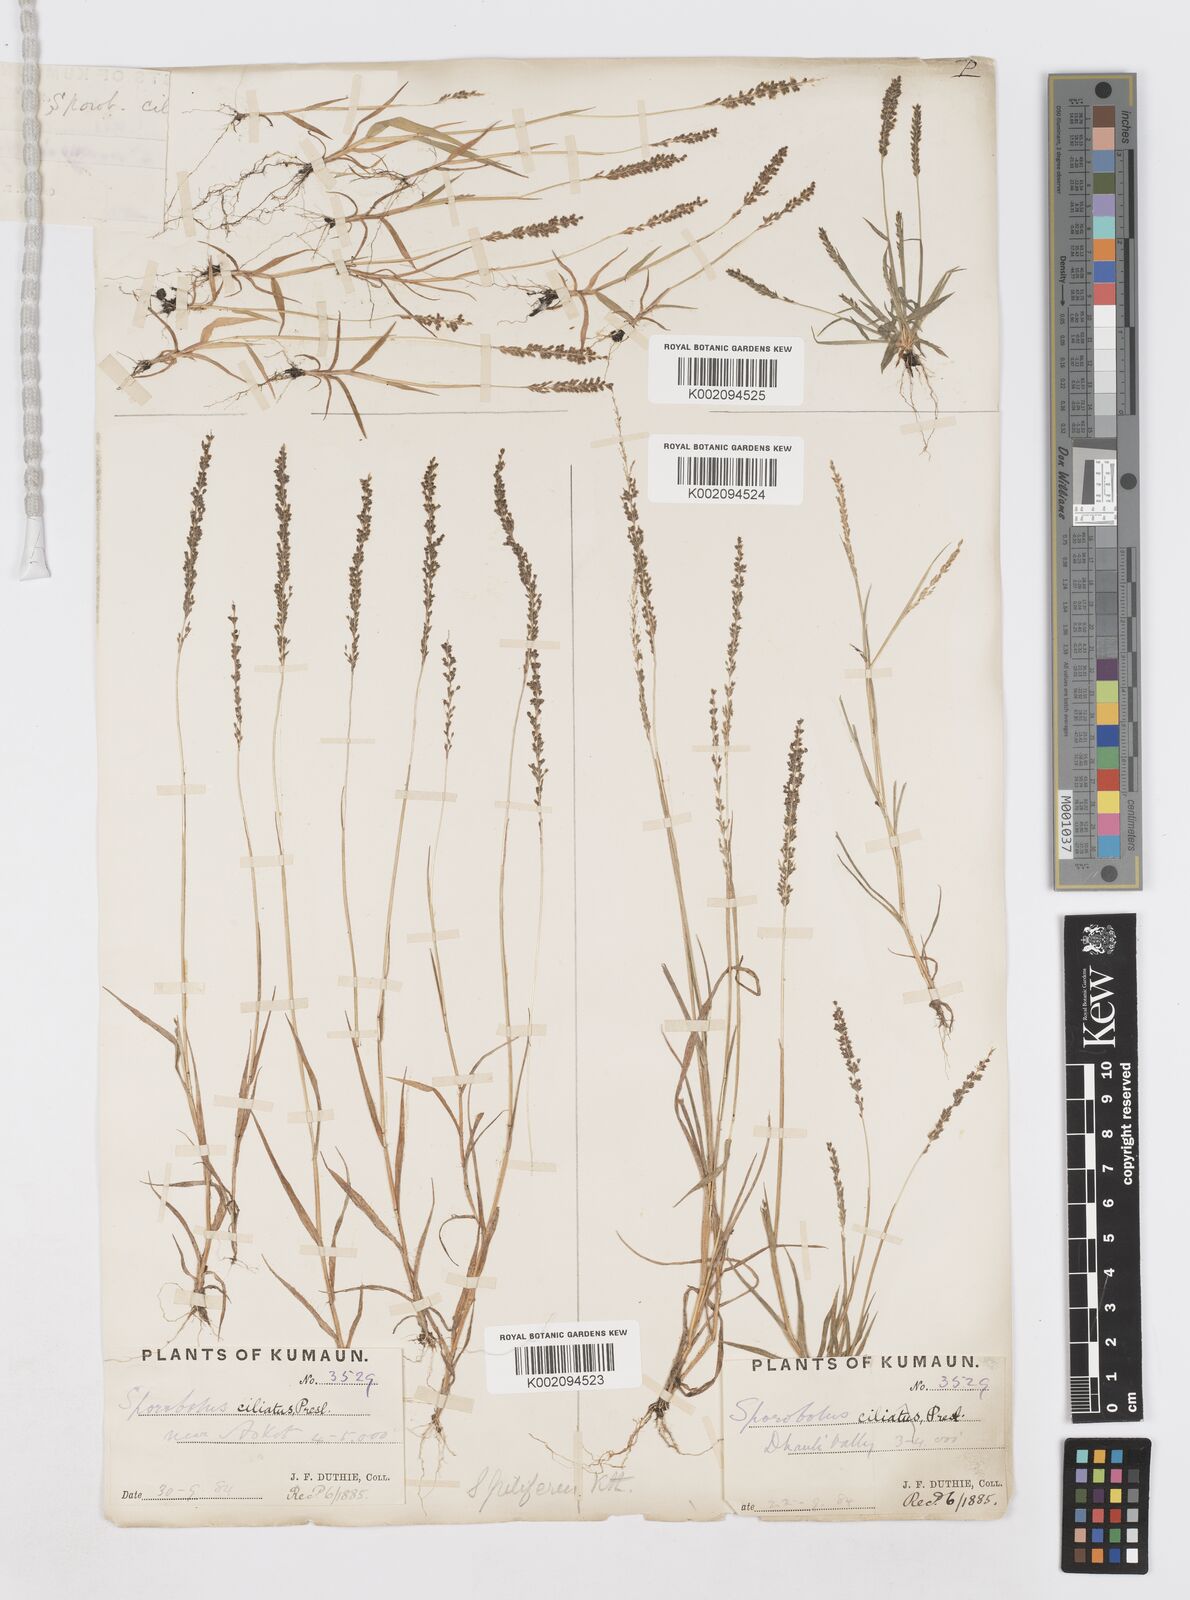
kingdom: Plantae
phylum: Tracheophyta
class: Liliopsida
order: Poales
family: Poaceae
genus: Sporobolus
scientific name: Sporobolus pilifer
